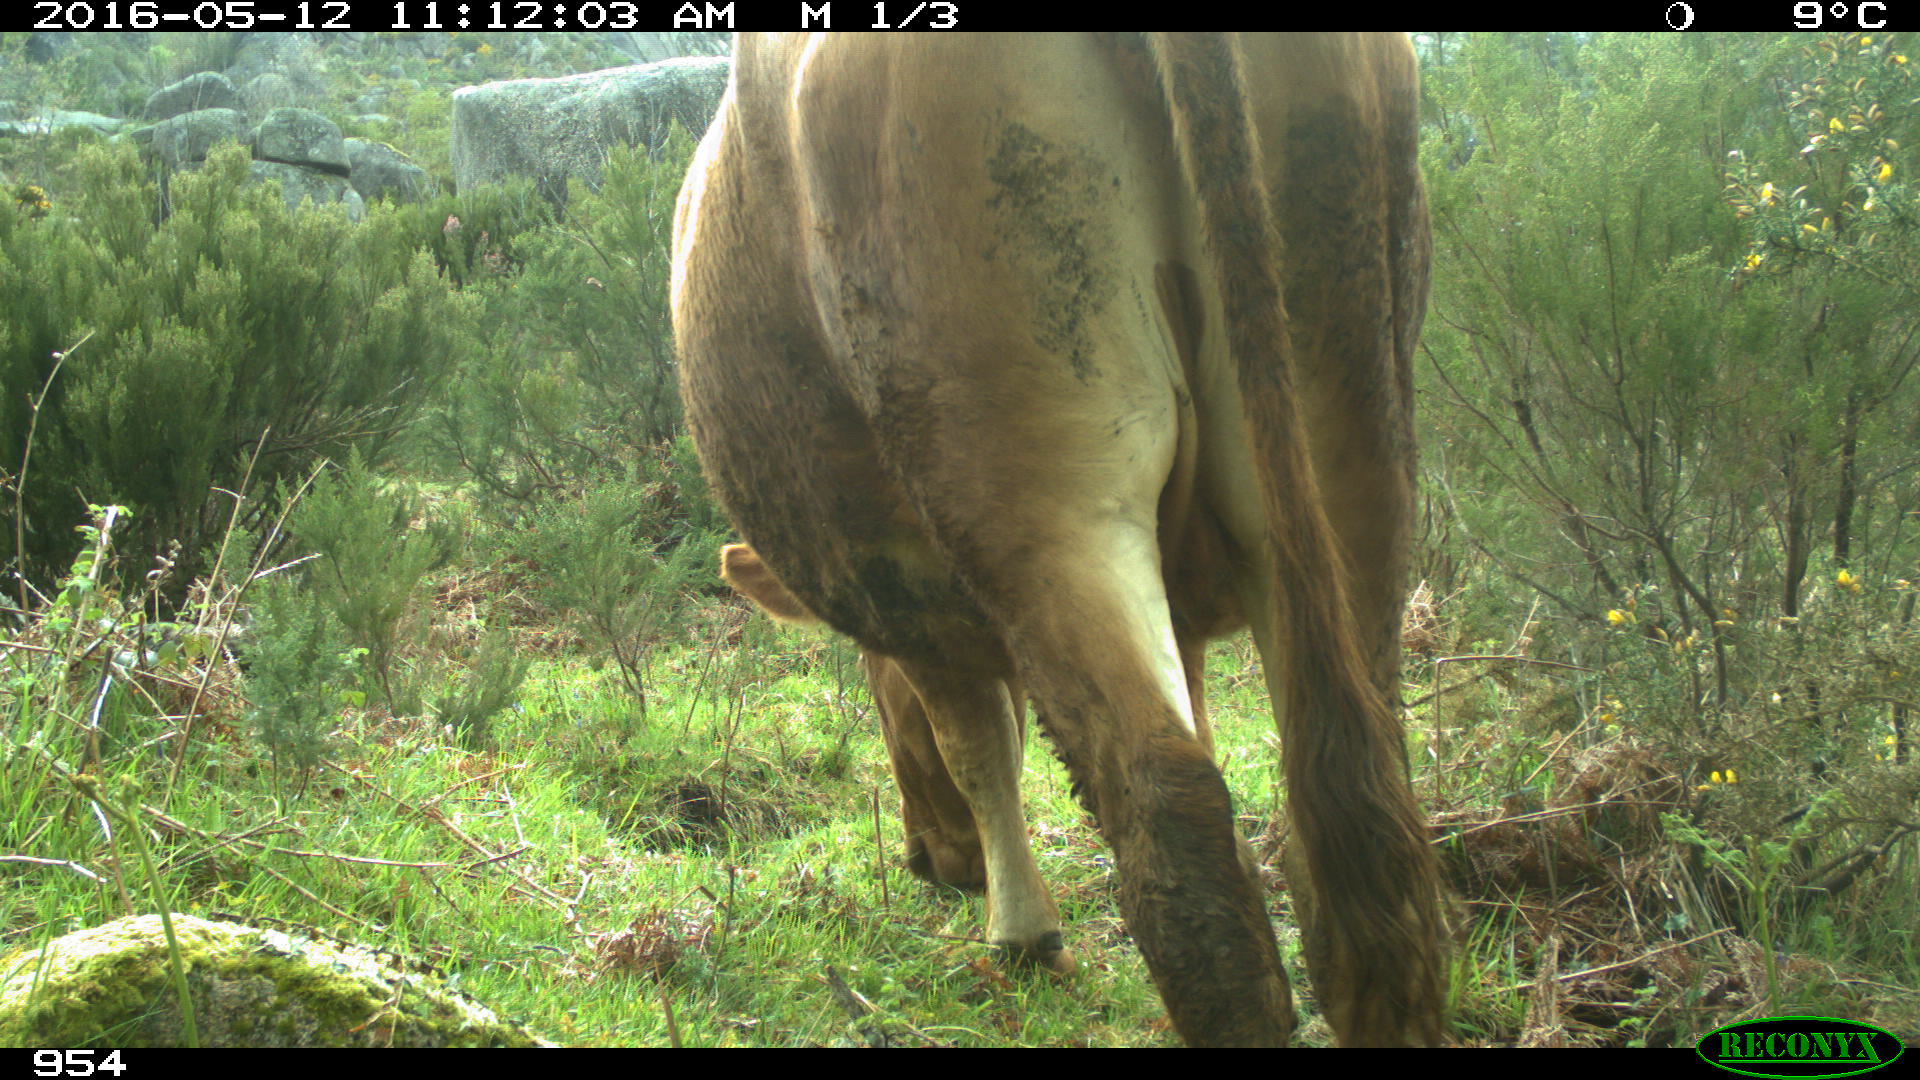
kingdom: Animalia
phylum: Chordata
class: Mammalia
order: Artiodactyla
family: Bovidae
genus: Bos
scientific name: Bos taurus
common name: Domesticated cattle
